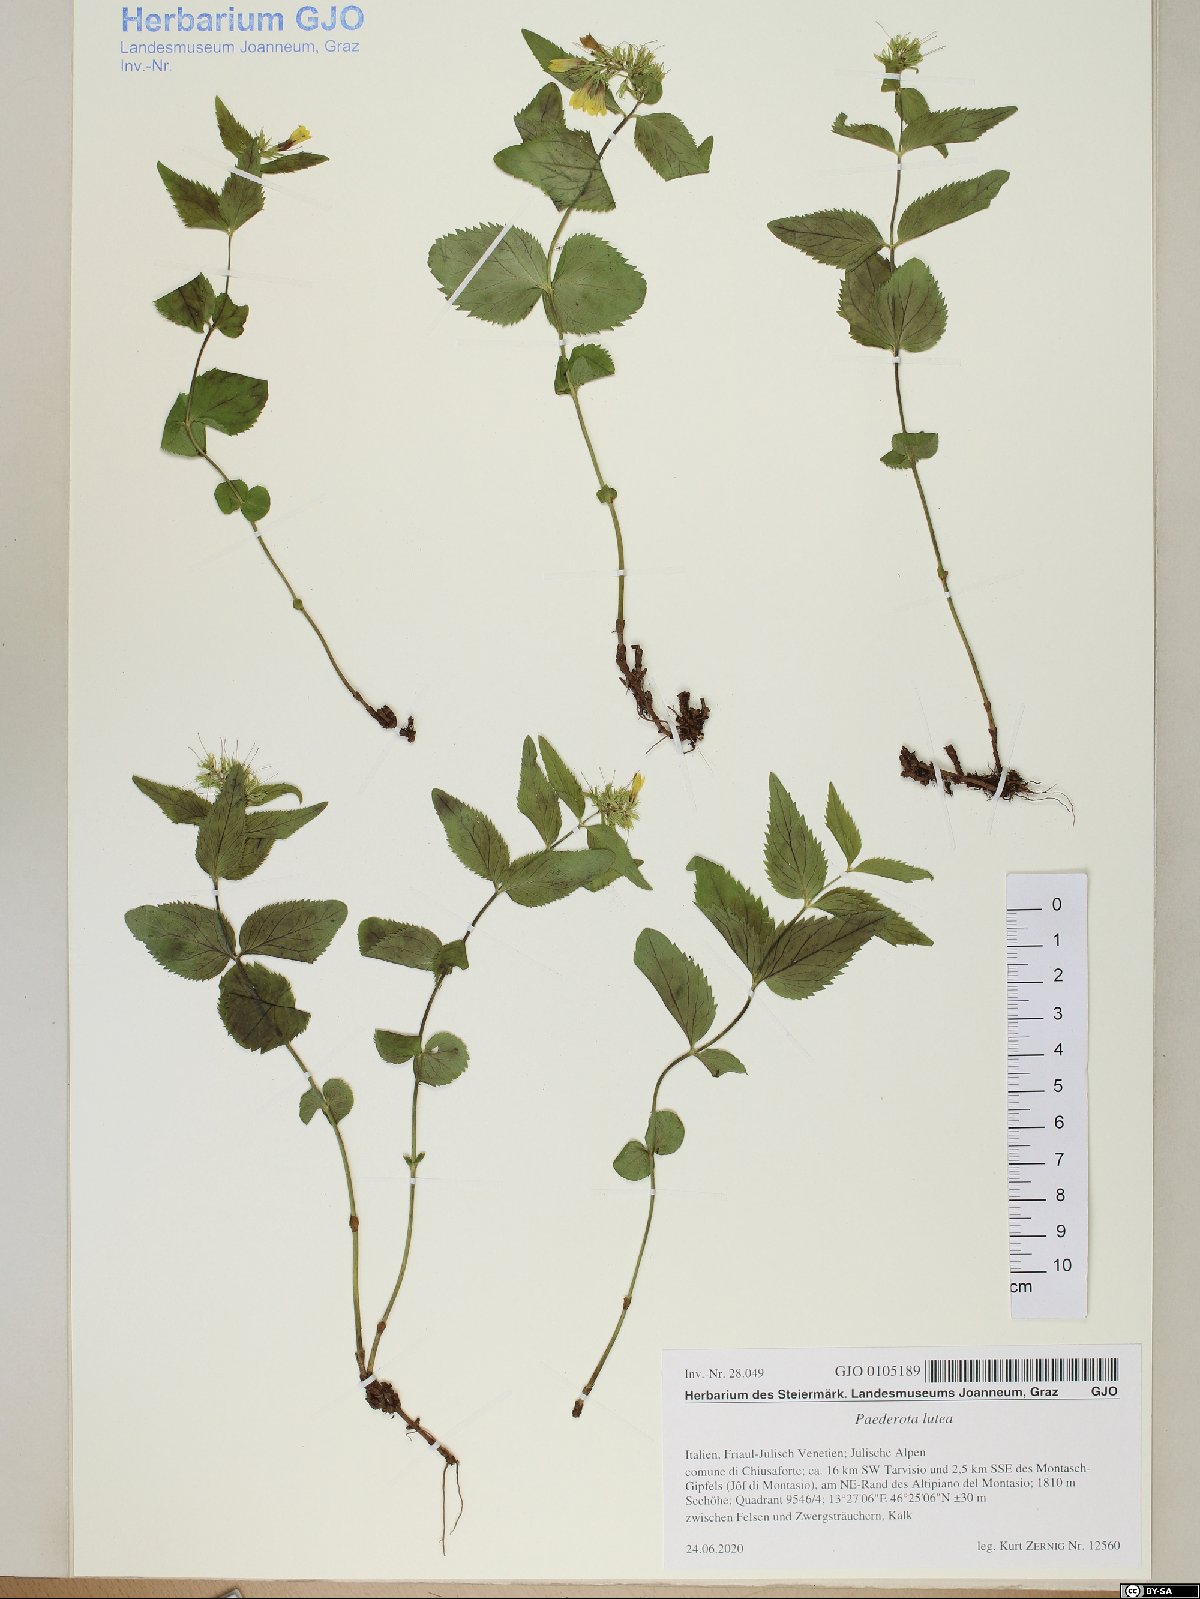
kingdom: Plantae
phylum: Tracheophyta
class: Magnoliopsida
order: Lamiales
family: Plantaginaceae
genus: Paederota
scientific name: Paederota lutea
